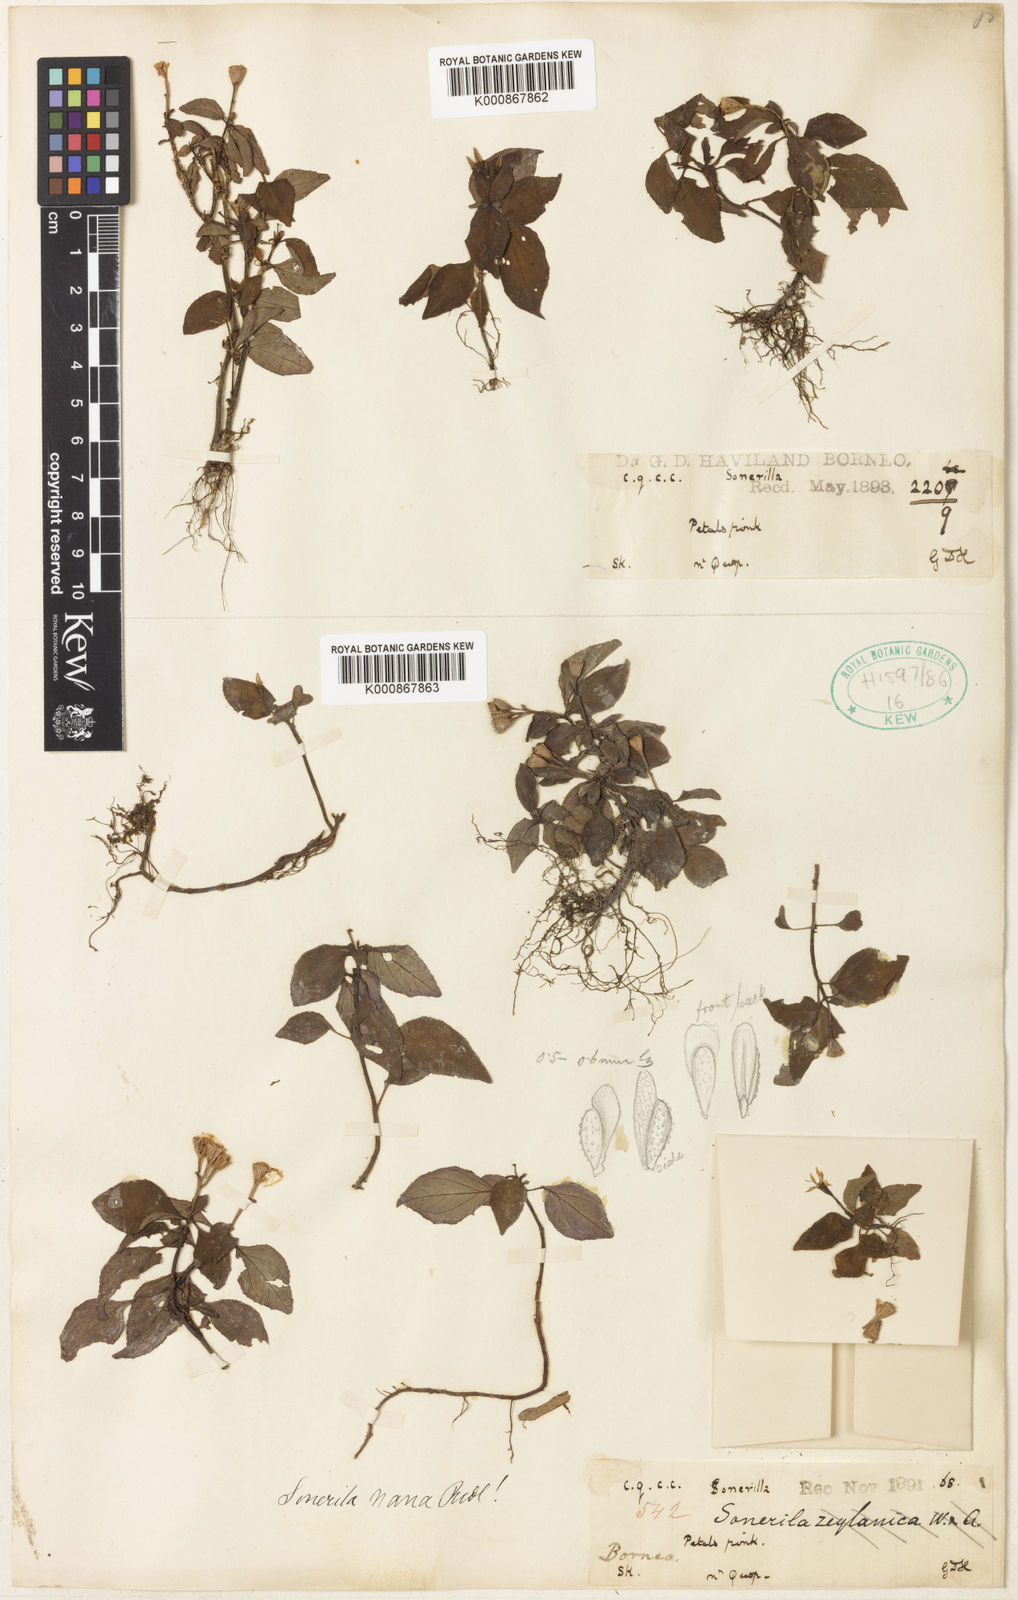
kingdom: Plantae
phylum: Tracheophyta
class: Magnoliopsida
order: Myrtales
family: Melastomataceae
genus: Sonerila
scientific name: Sonerila nana
